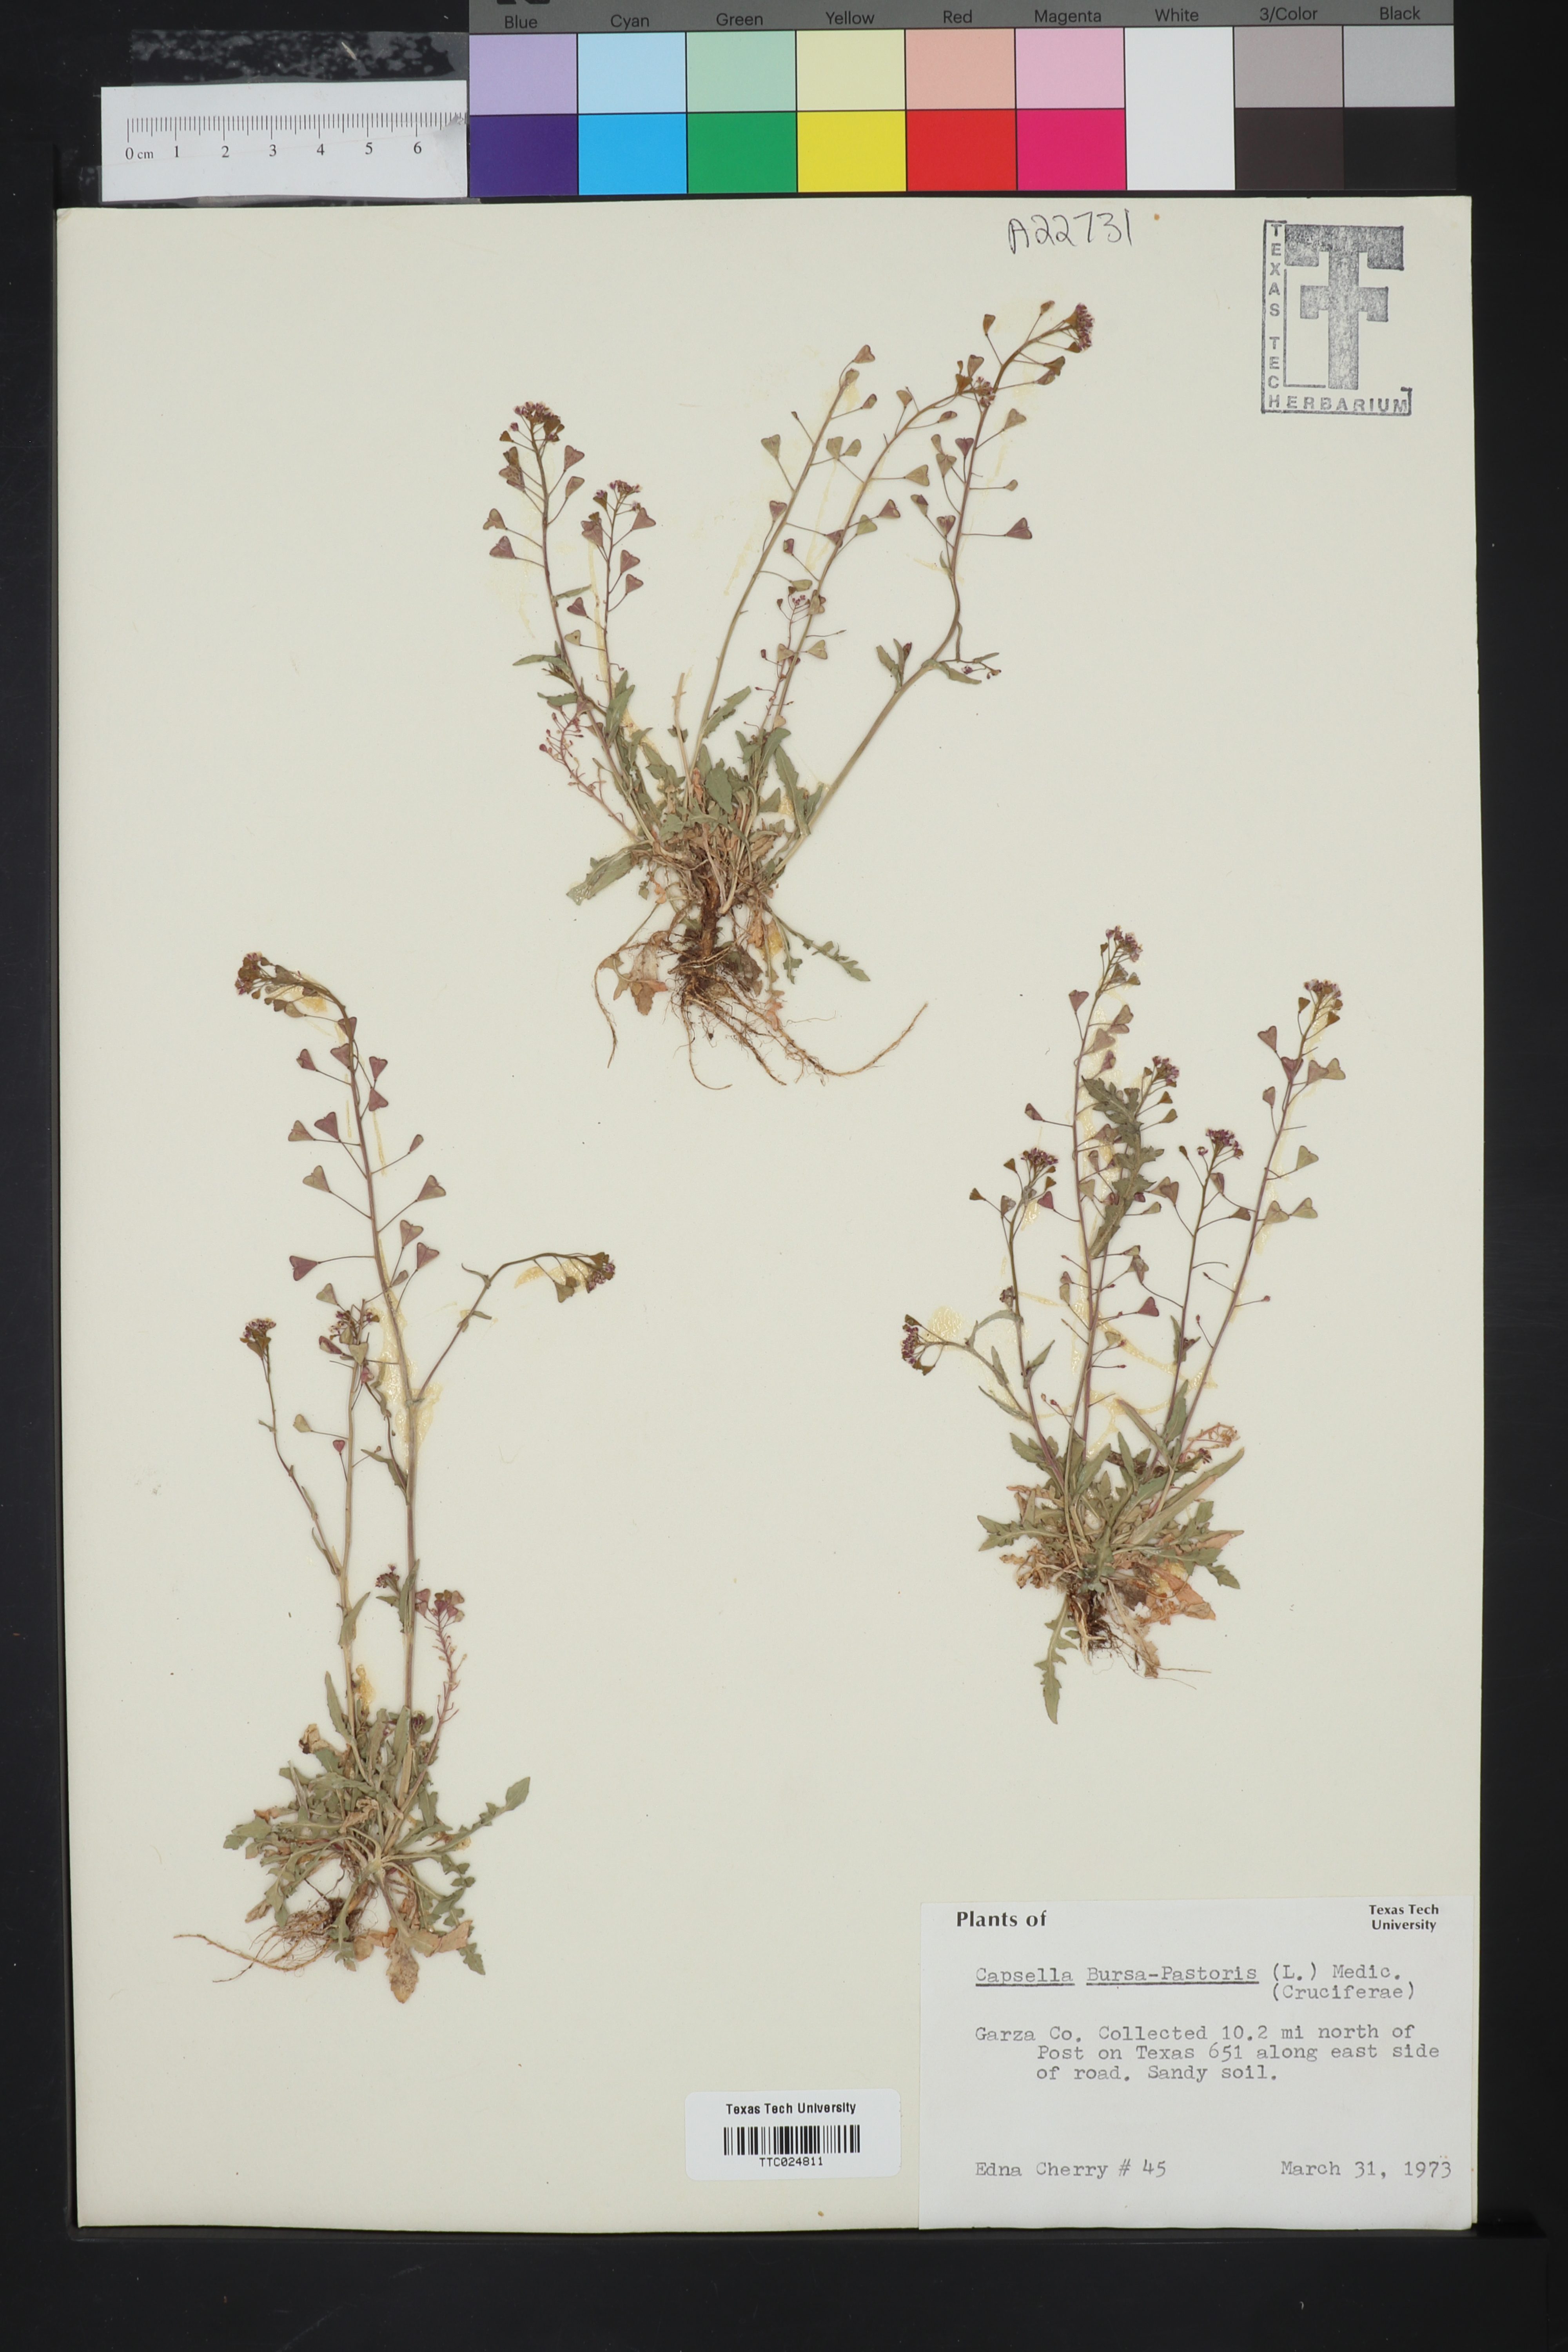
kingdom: Plantae
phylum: Tracheophyta
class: Magnoliopsida
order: Brassicales
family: Brassicaceae
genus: Capsella
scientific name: Capsella bursa-pastoris
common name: Shepherd's purse
